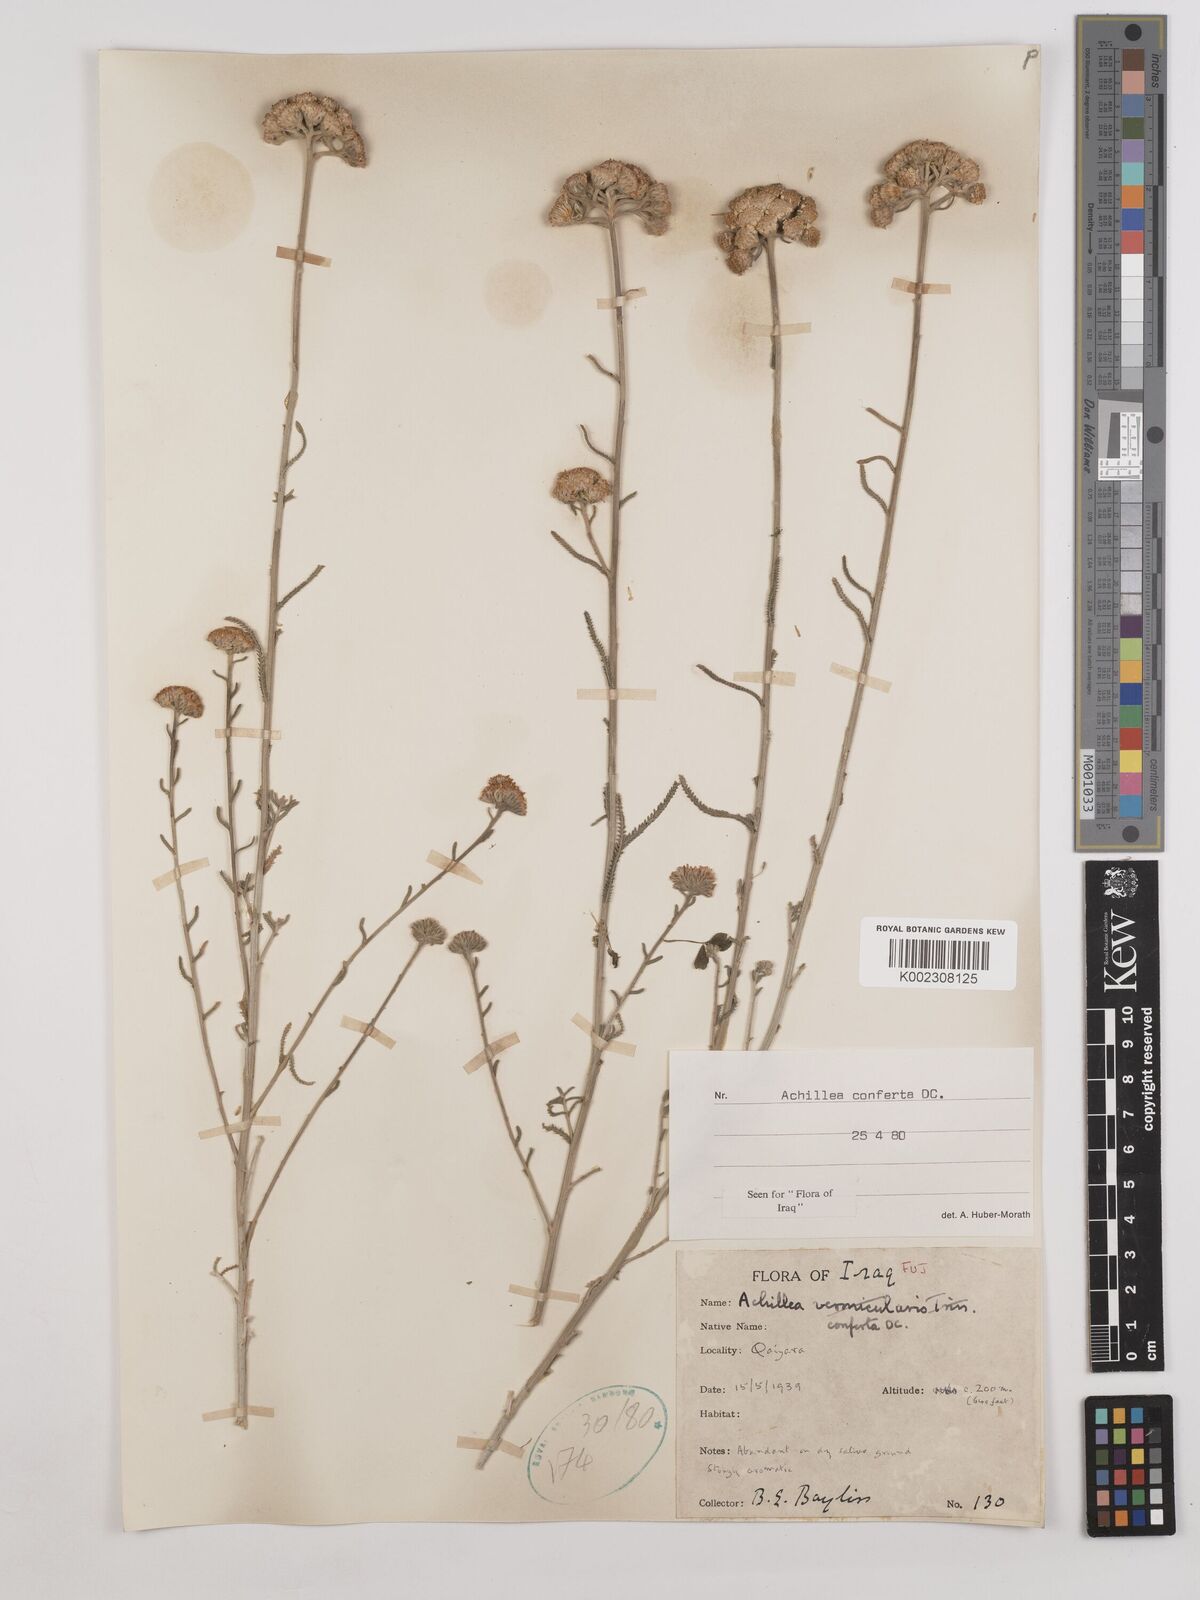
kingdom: Plantae
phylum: Tracheophyta
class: Magnoliopsida
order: Asterales
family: Asteraceae
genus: Achillea
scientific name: Achillea conferta
